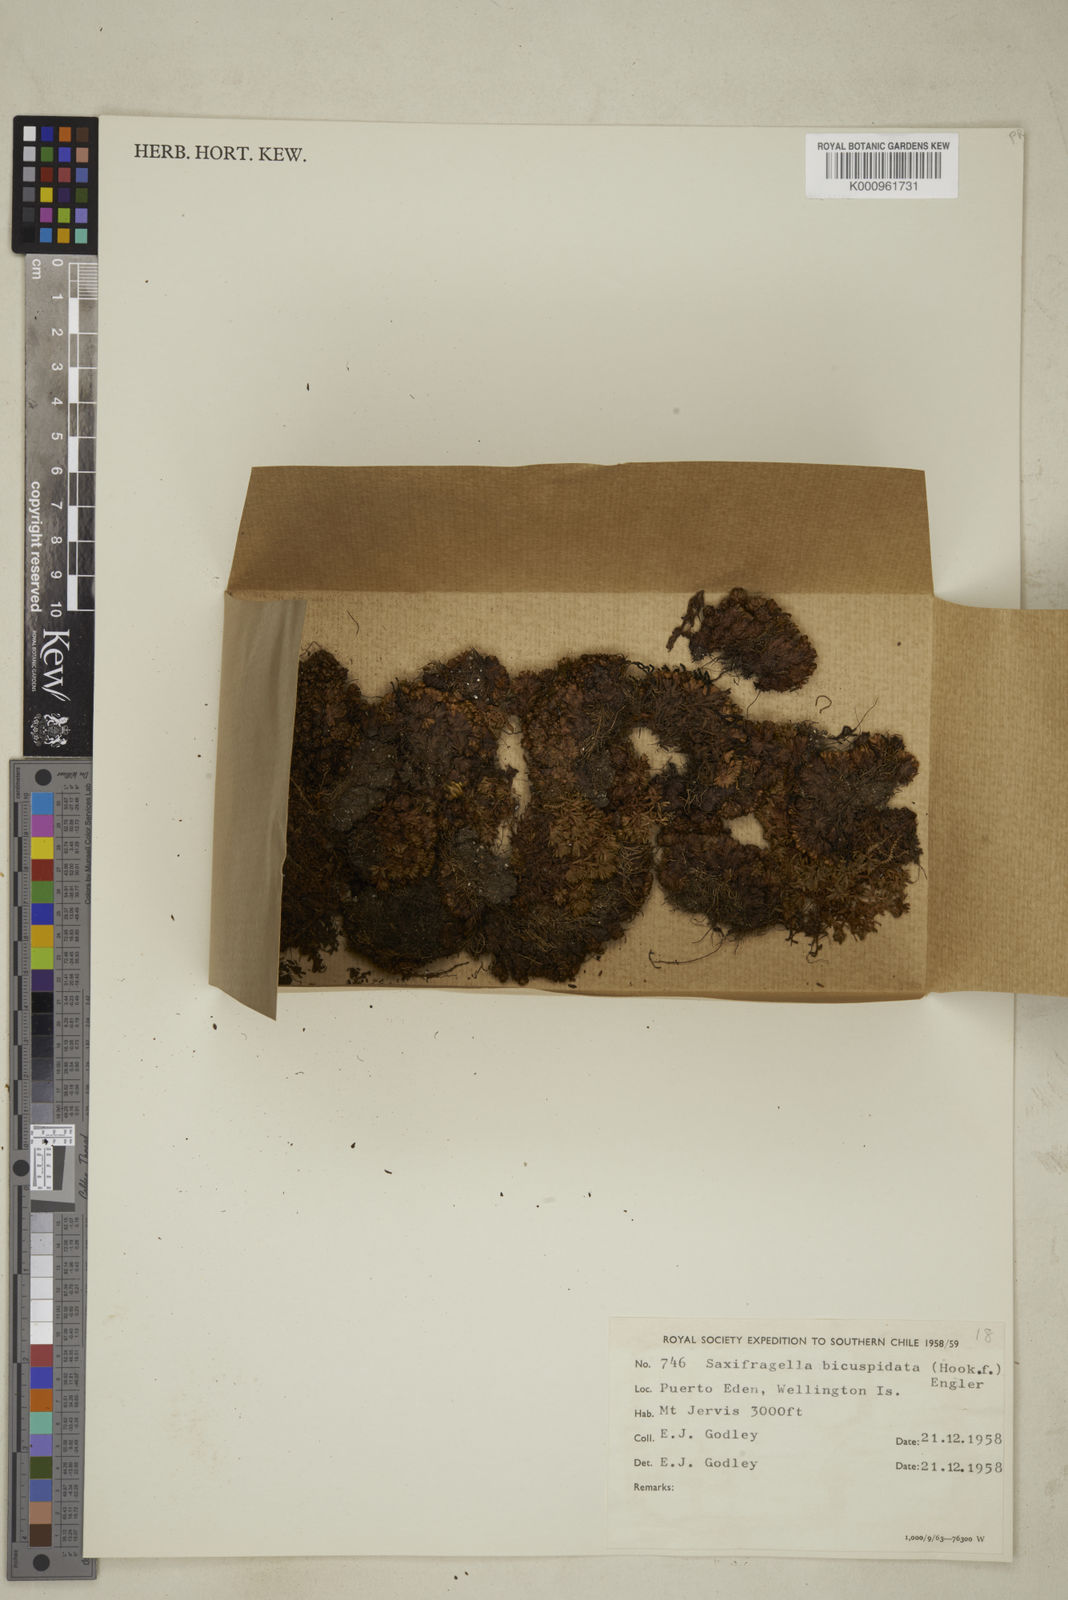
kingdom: Plantae
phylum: Tracheophyta
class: Magnoliopsida
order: Saxifragales
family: Saxifragaceae
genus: Saxifraga
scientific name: Saxifraga bicuspidata
